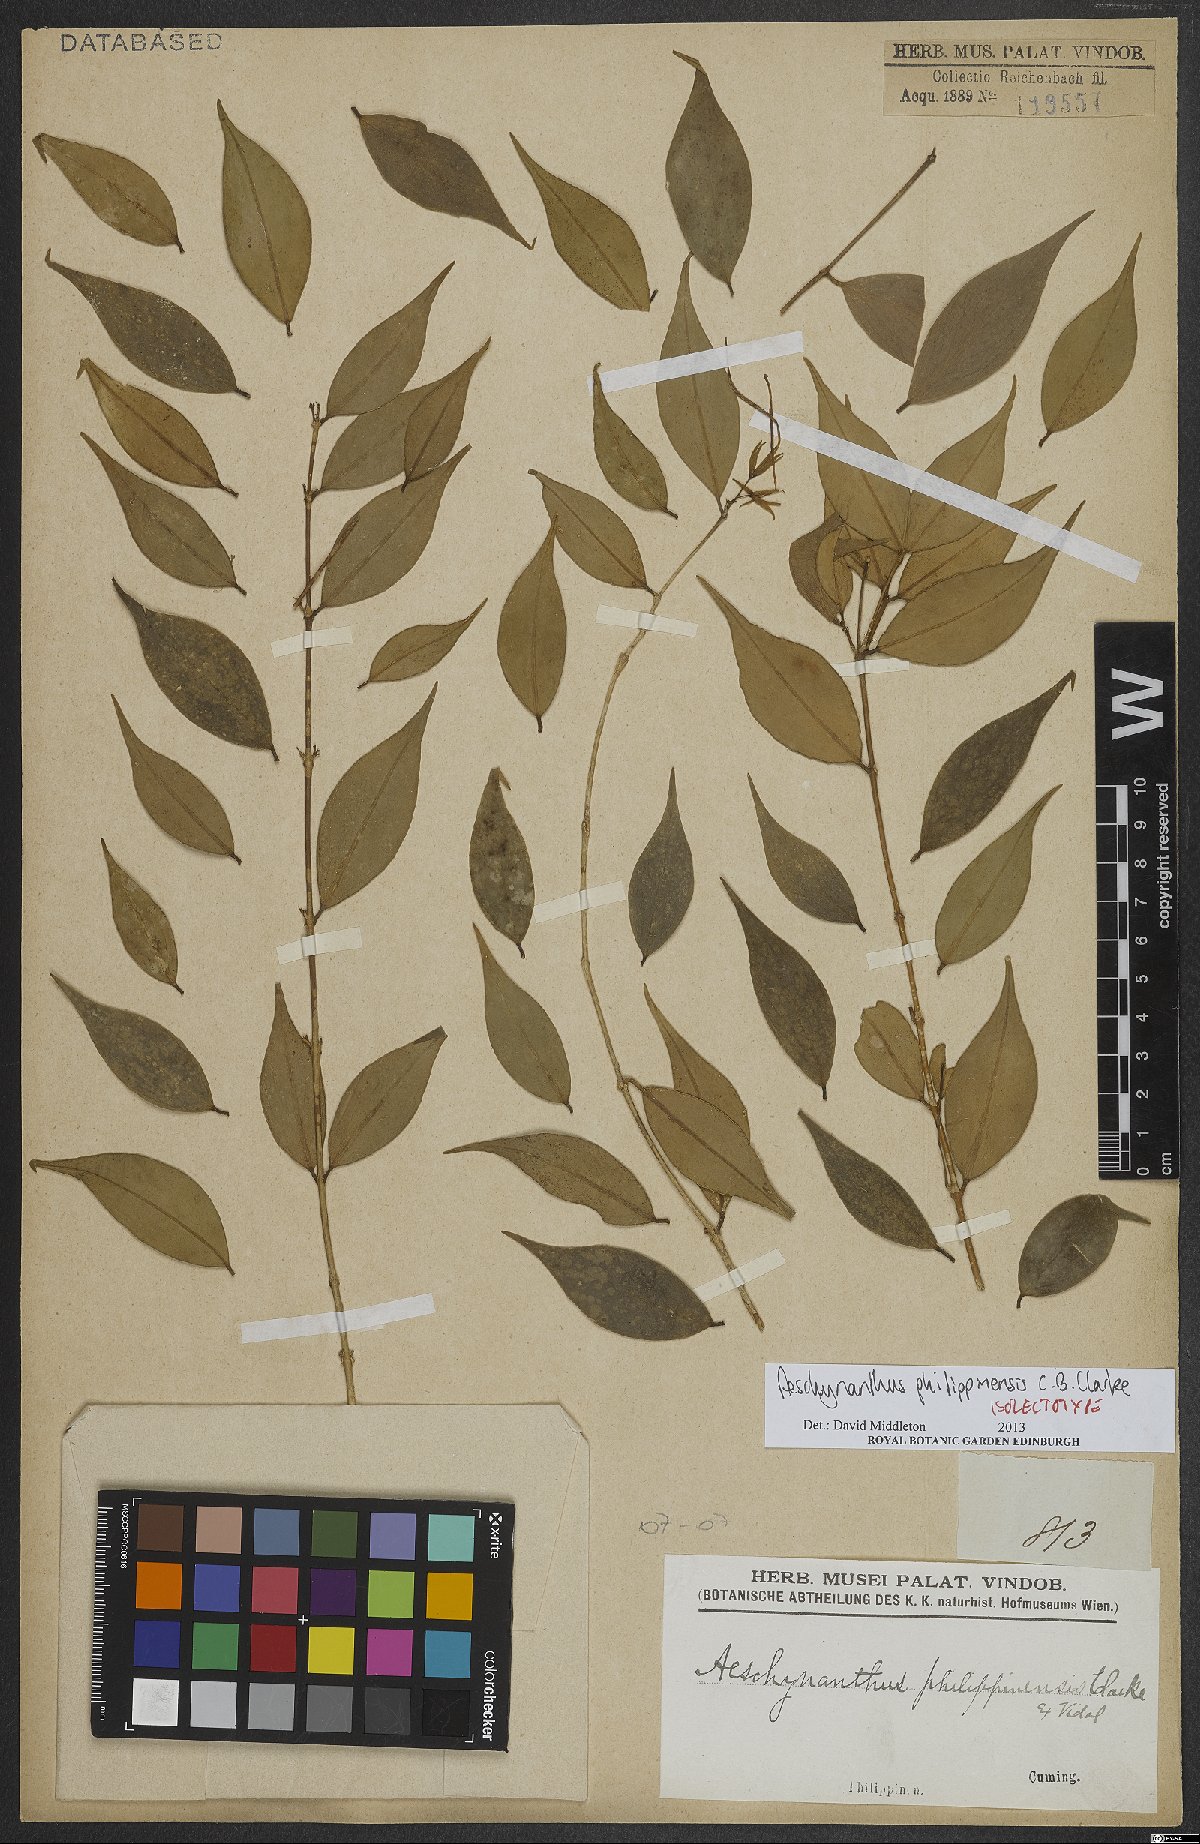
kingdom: Plantae
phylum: Tracheophyta
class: Magnoliopsida
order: Lamiales
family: Gesneriaceae
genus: Aeschynanthus
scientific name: Aeschynanthus philippinensis
